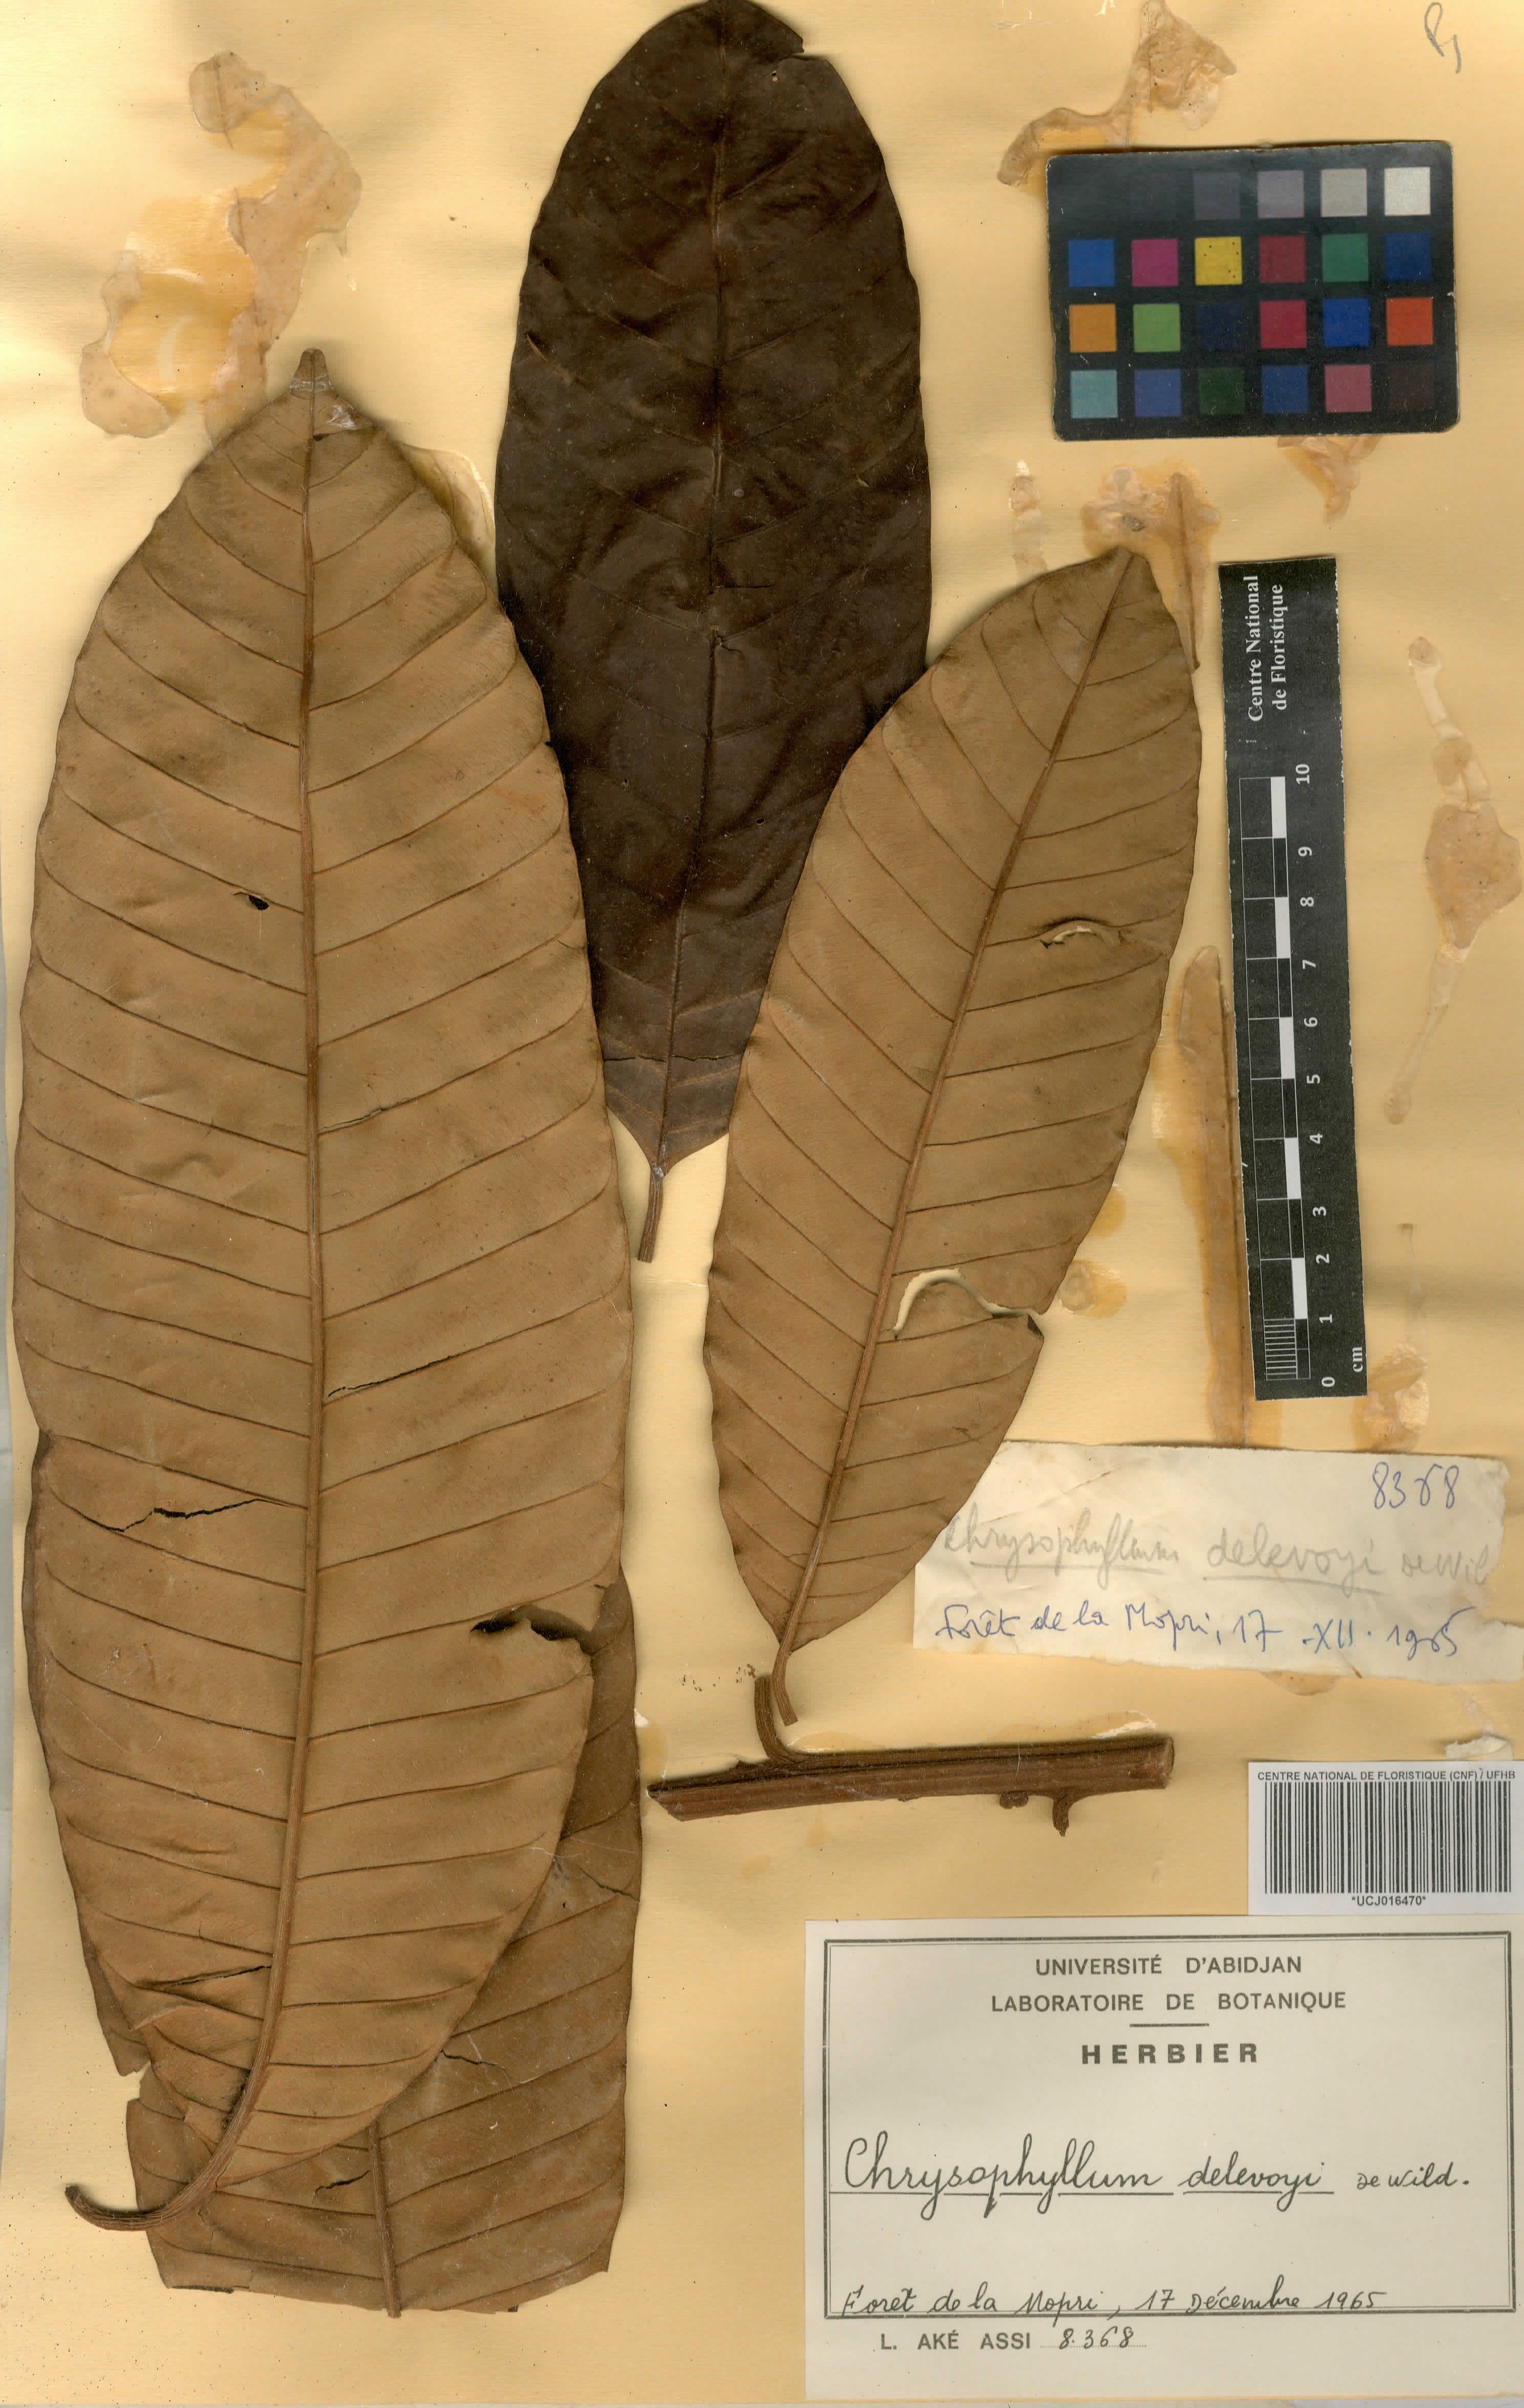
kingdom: Plantae
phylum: Tracheophyta
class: Magnoliopsida
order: Ericales
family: Sapotaceae
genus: Gambeya
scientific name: Gambeya africana
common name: African star apple
